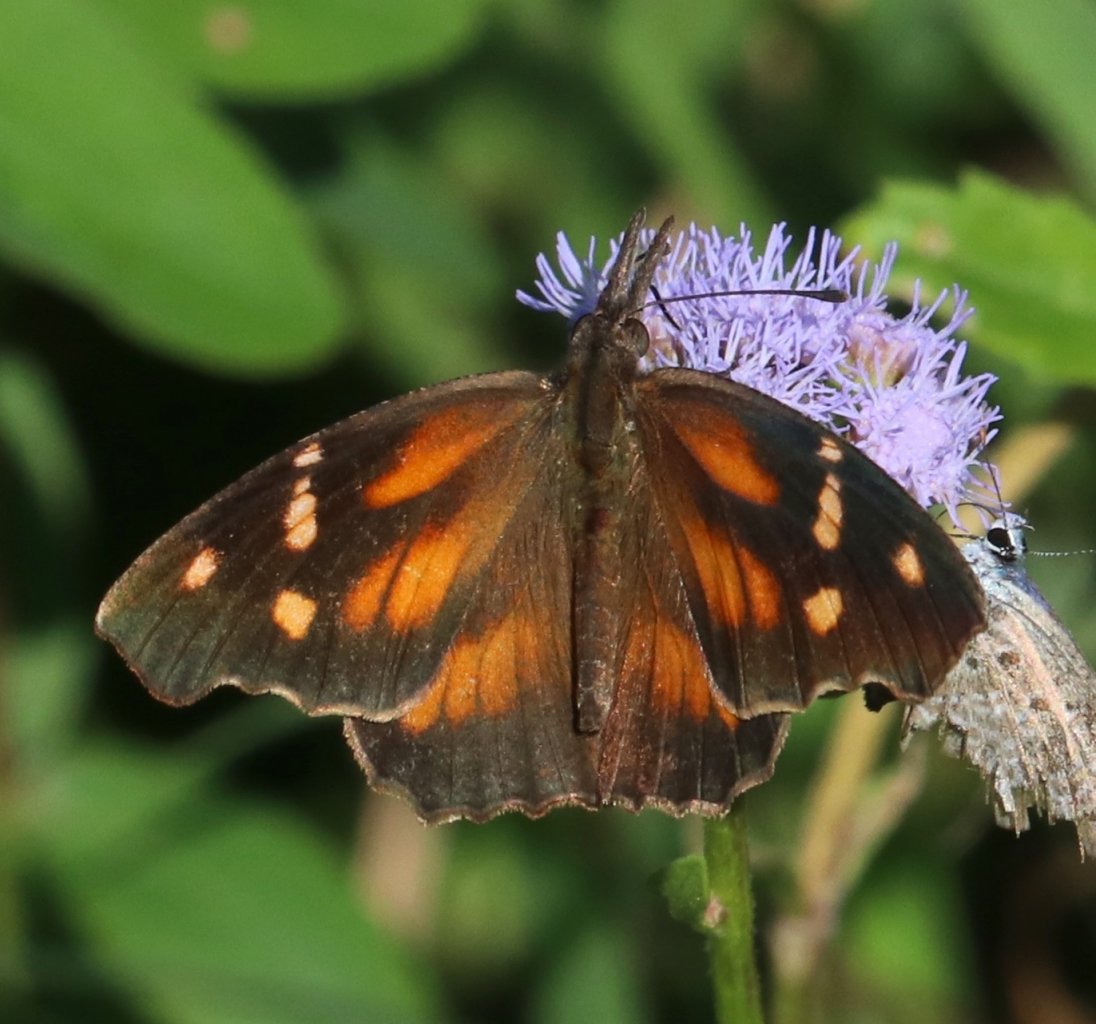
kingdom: Animalia
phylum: Arthropoda
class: Insecta
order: Lepidoptera
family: Nymphalidae
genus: Libytheana
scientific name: Libytheana carinenta
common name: American Snout
